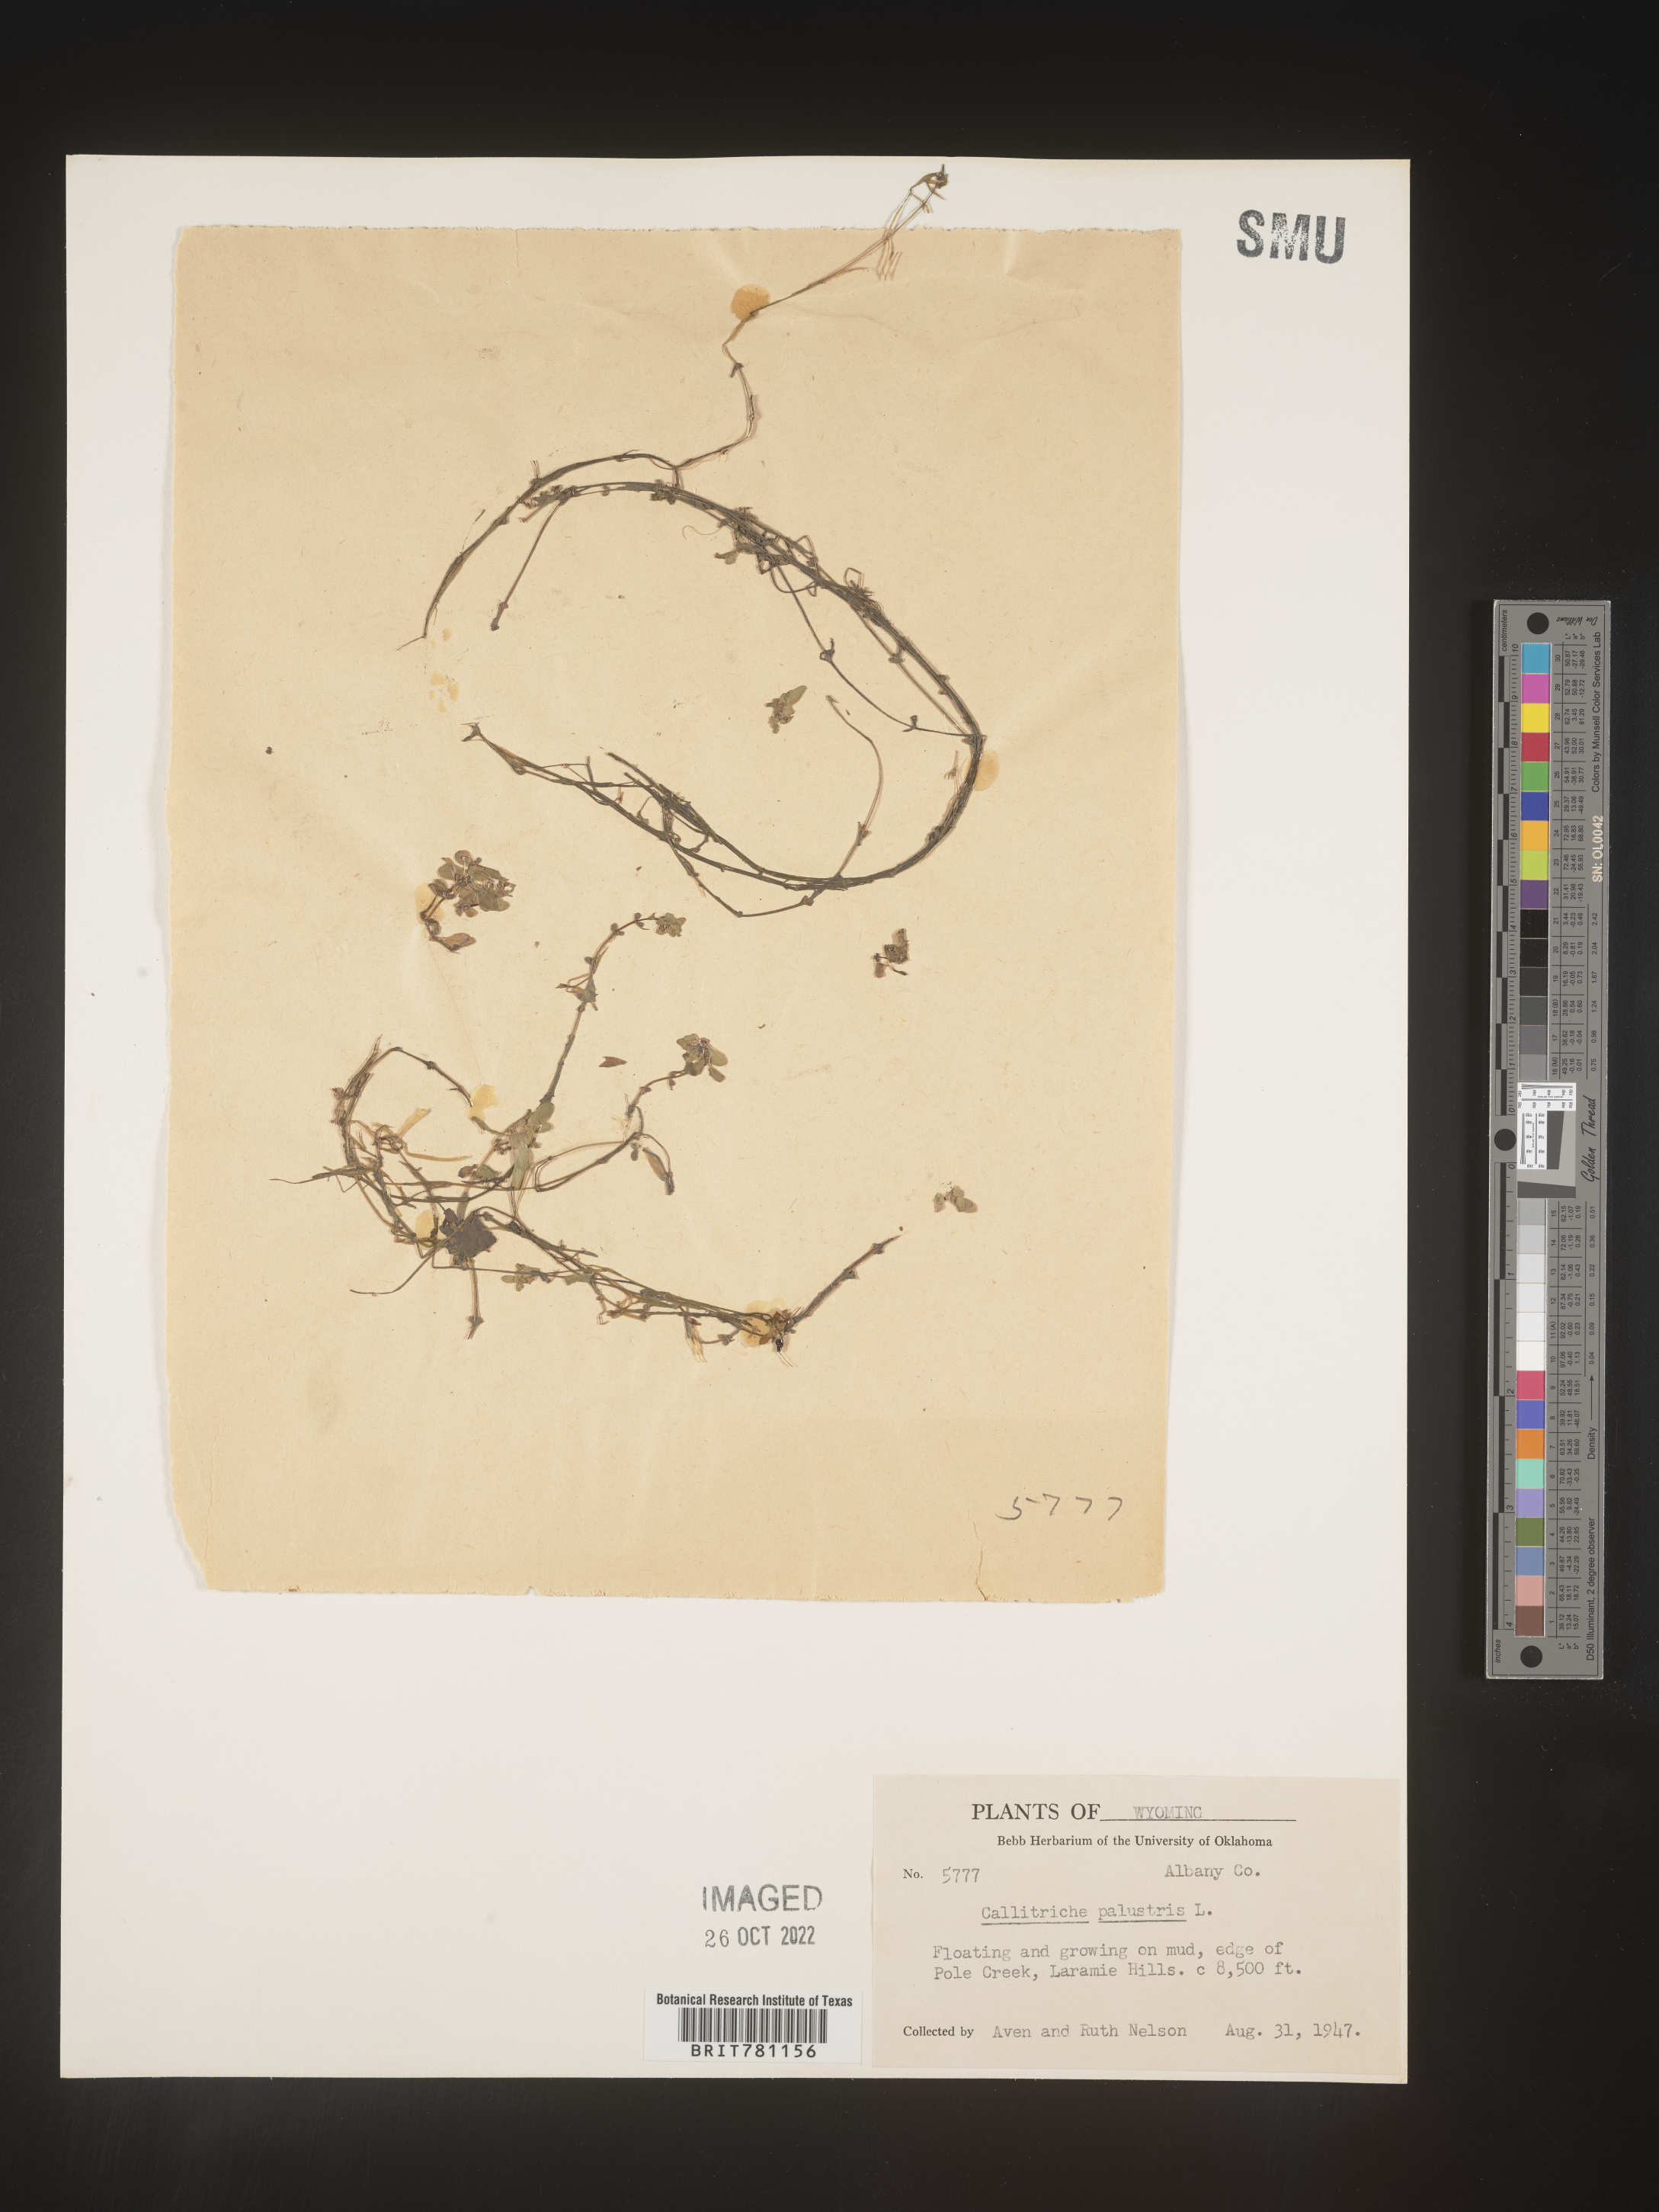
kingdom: Plantae
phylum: Tracheophyta
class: Magnoliopsida
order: Lamiales
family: Plantaginaceae
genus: Callitriche
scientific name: Callitriche
